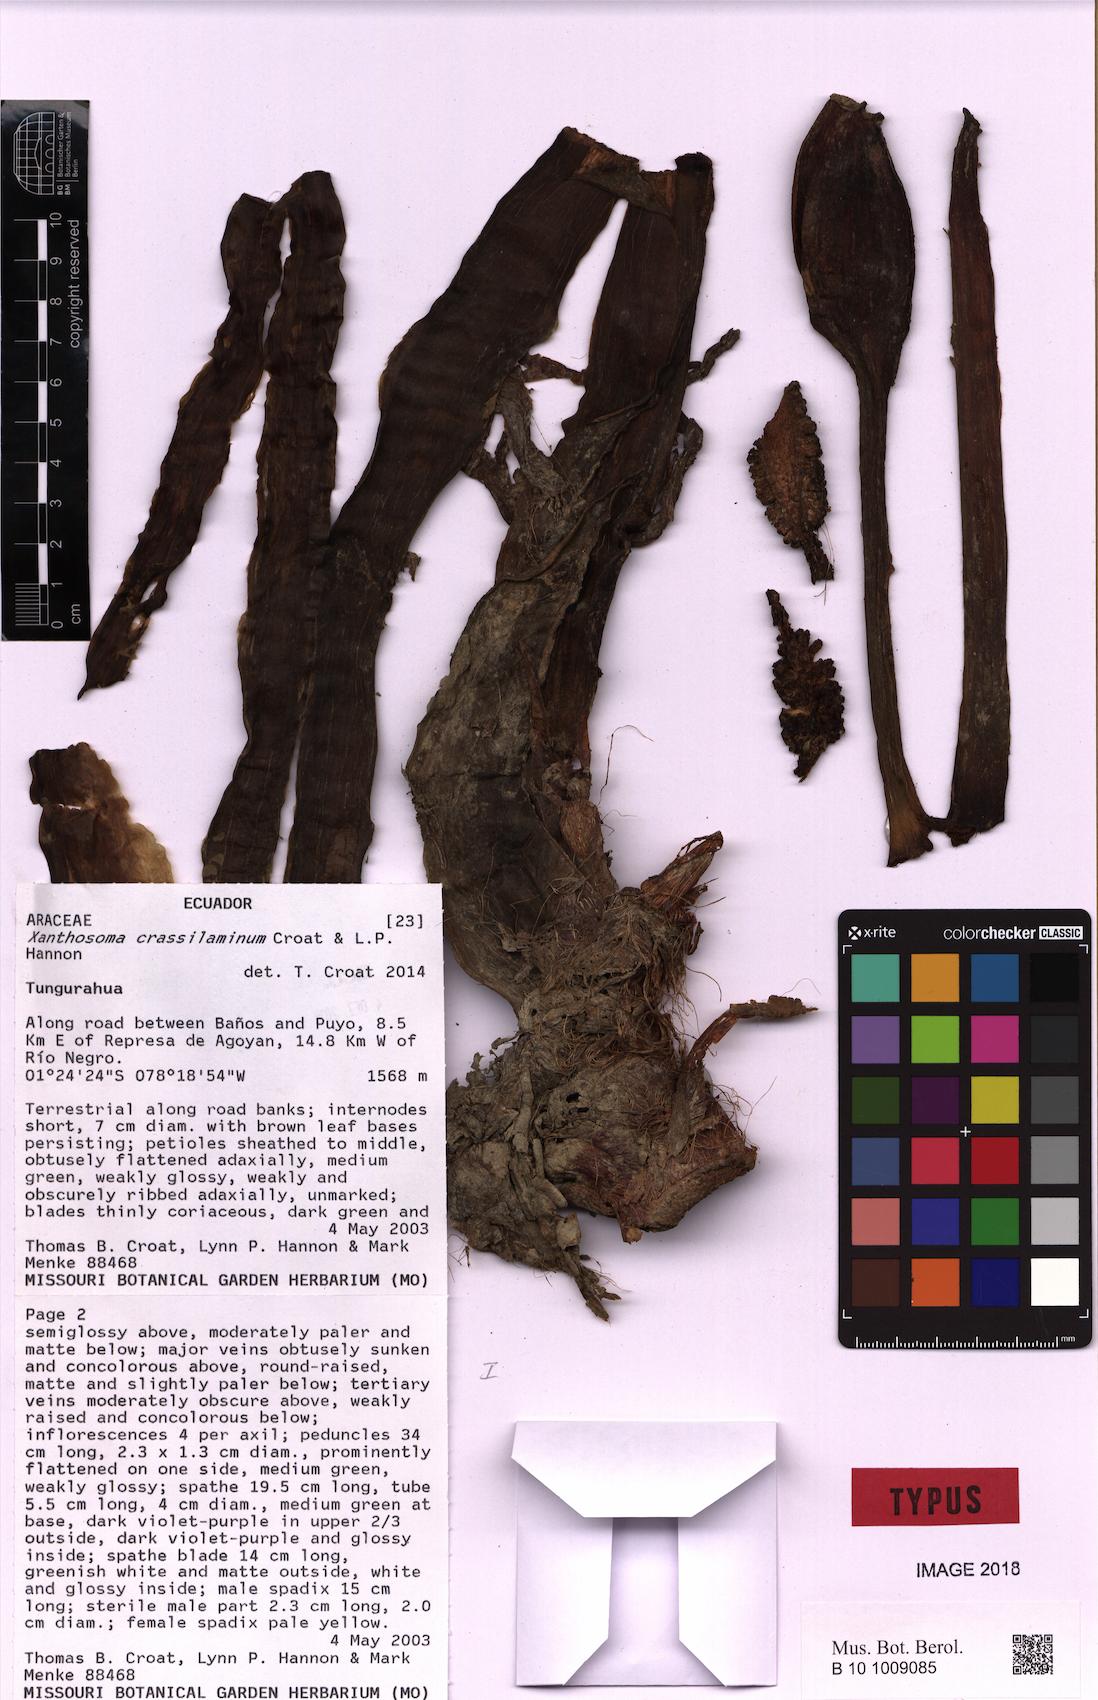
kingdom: Plantae
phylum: Tracheophyta
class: Liliopsida
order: Alismatales
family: Araceae
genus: Xanthosoma
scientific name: Xanthosoma crassilaminum
